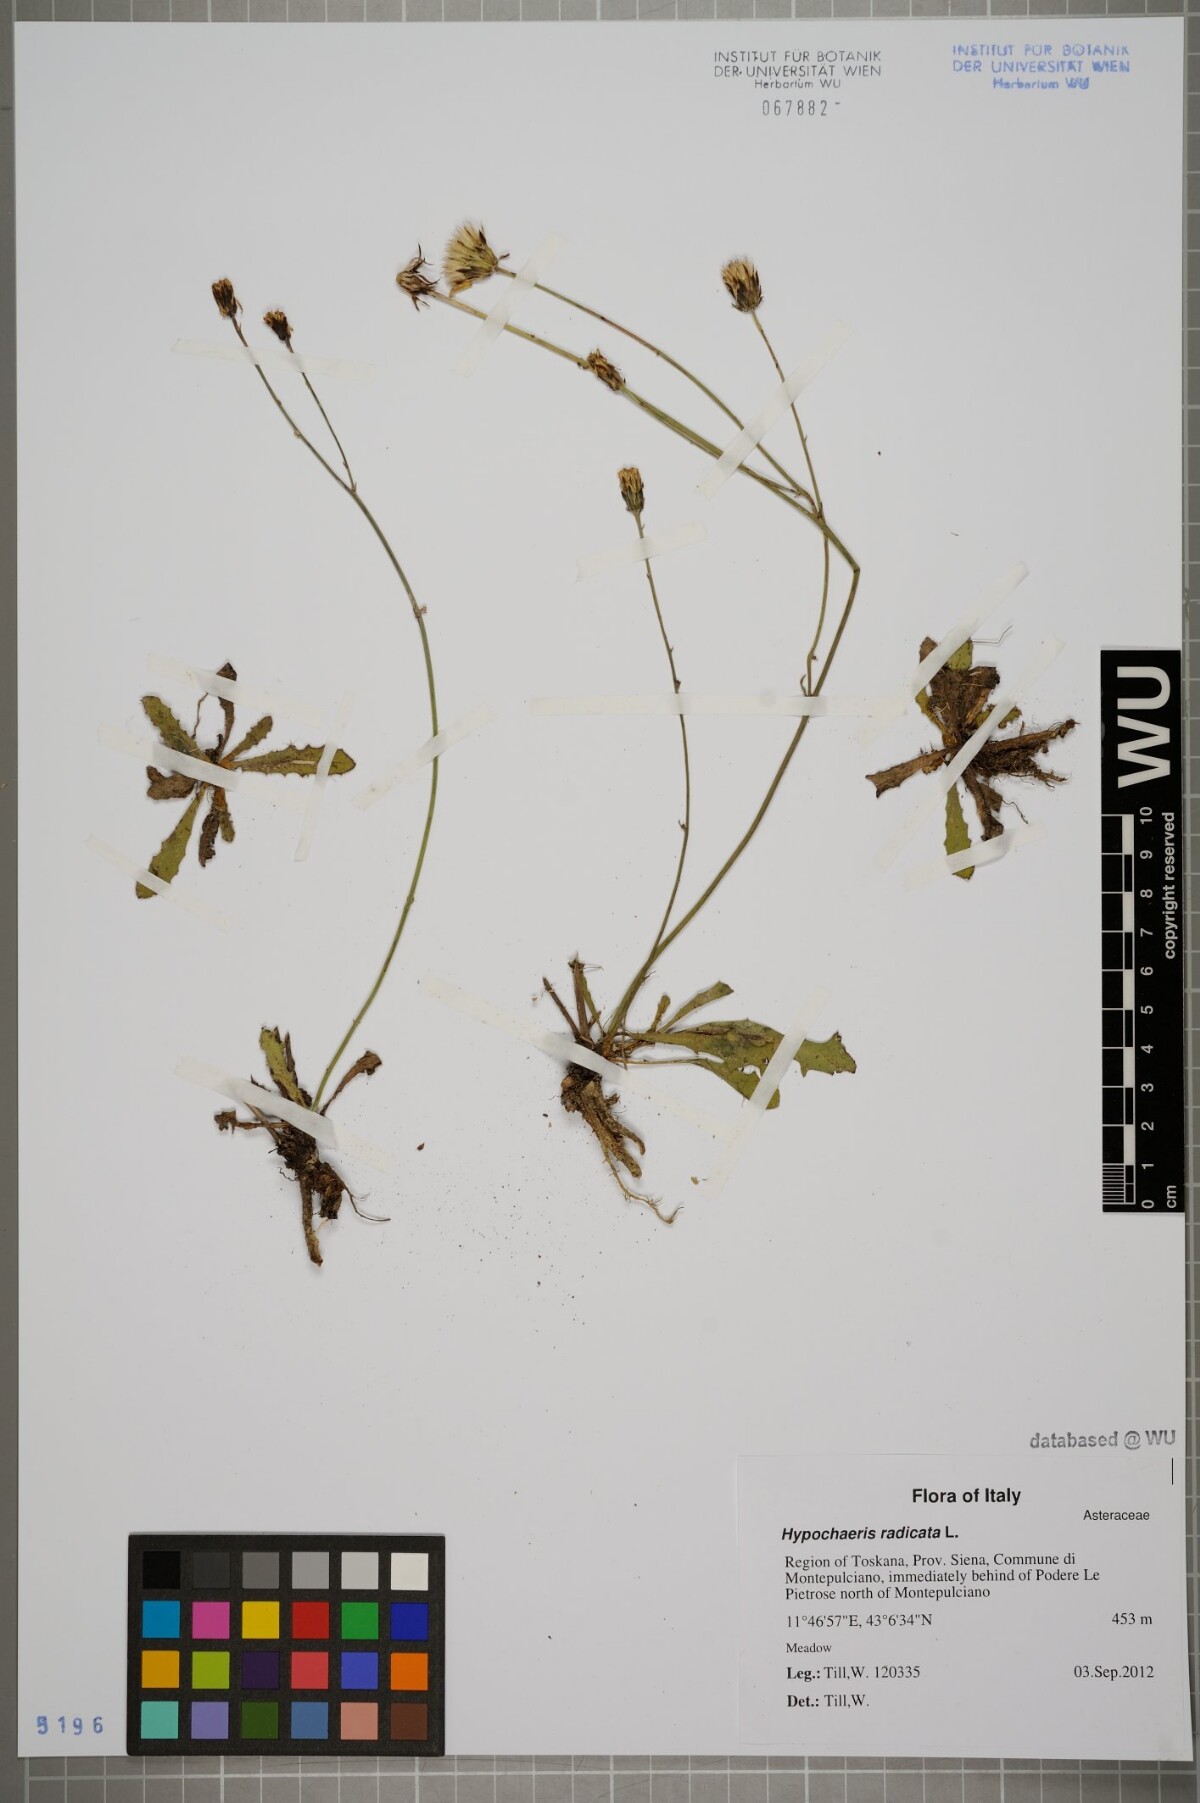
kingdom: Plantae
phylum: Tracheophyta
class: Magnoliopsida
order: Asterales
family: Asteraceae
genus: Hypochaeris
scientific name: Hypochaeris radicata
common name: Flatweed
